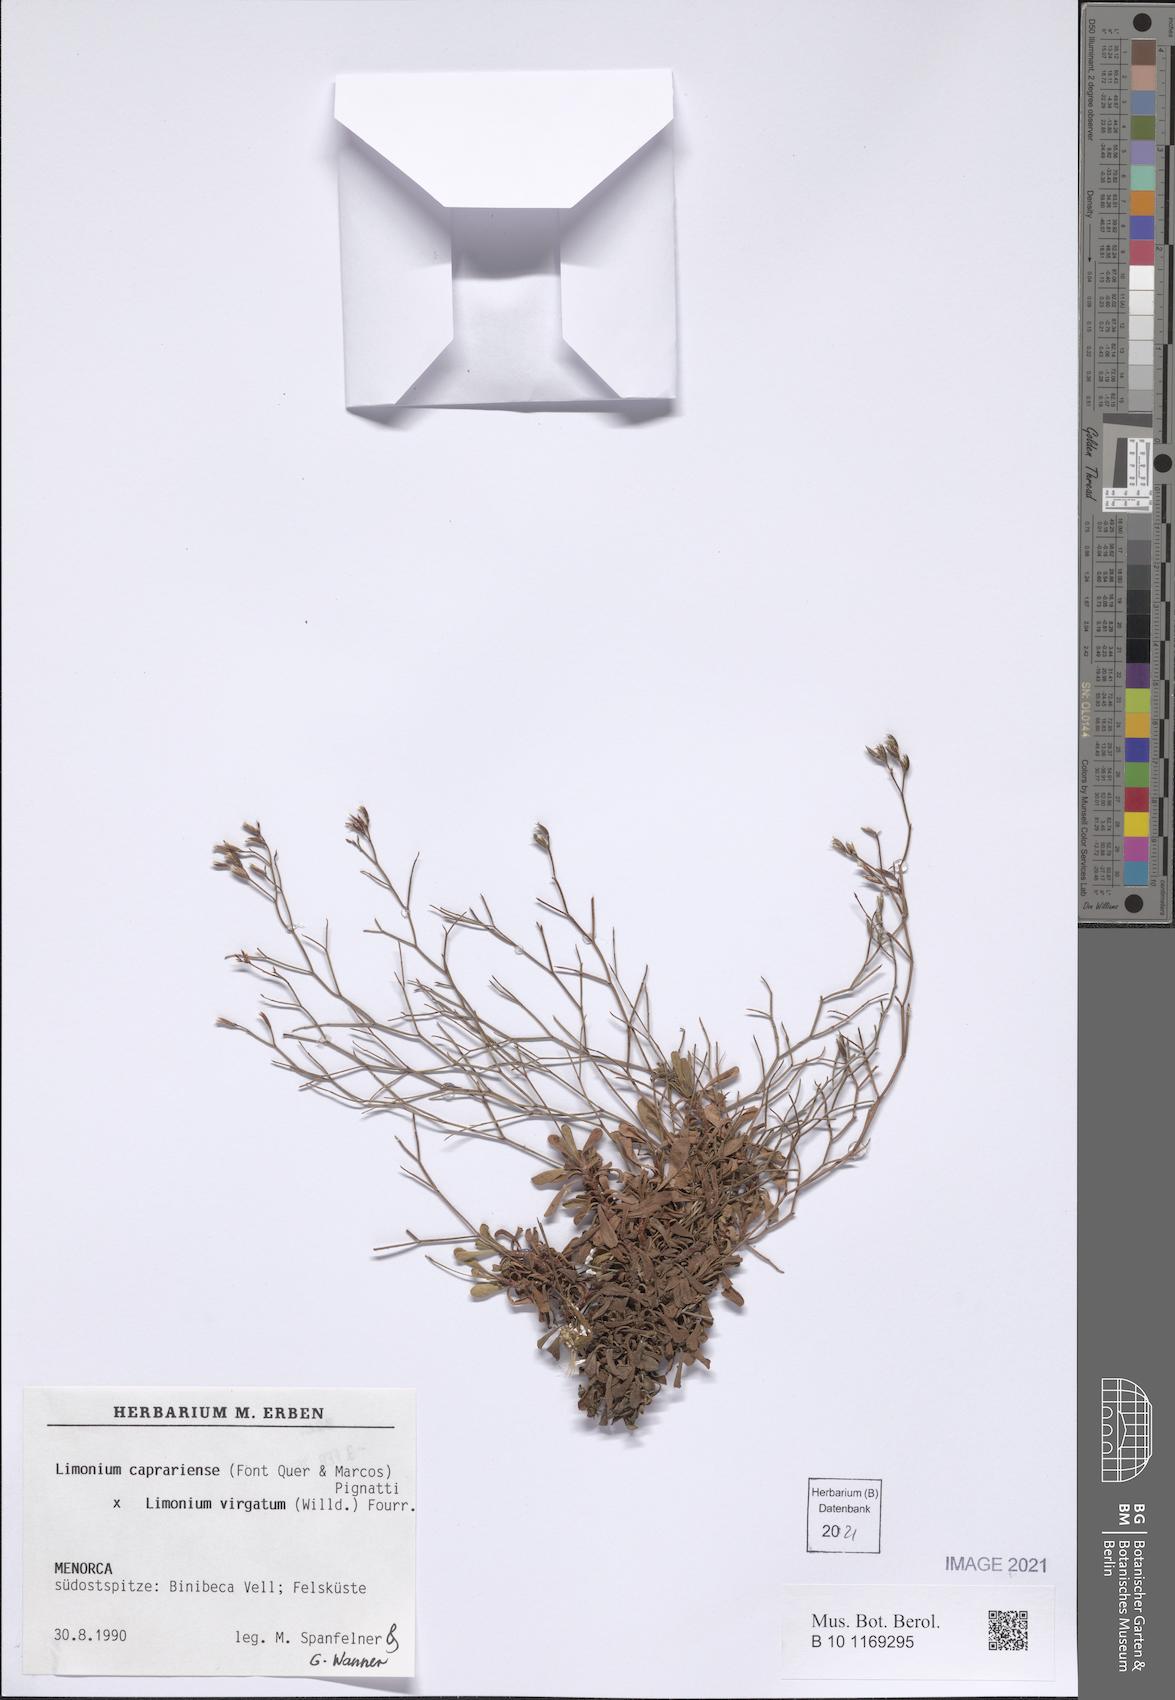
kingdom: Plantae
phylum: Tracheophyta
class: Magnoliopsida
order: Caryophyllales
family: Plumbaginaceae
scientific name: Plumbaginaceae
